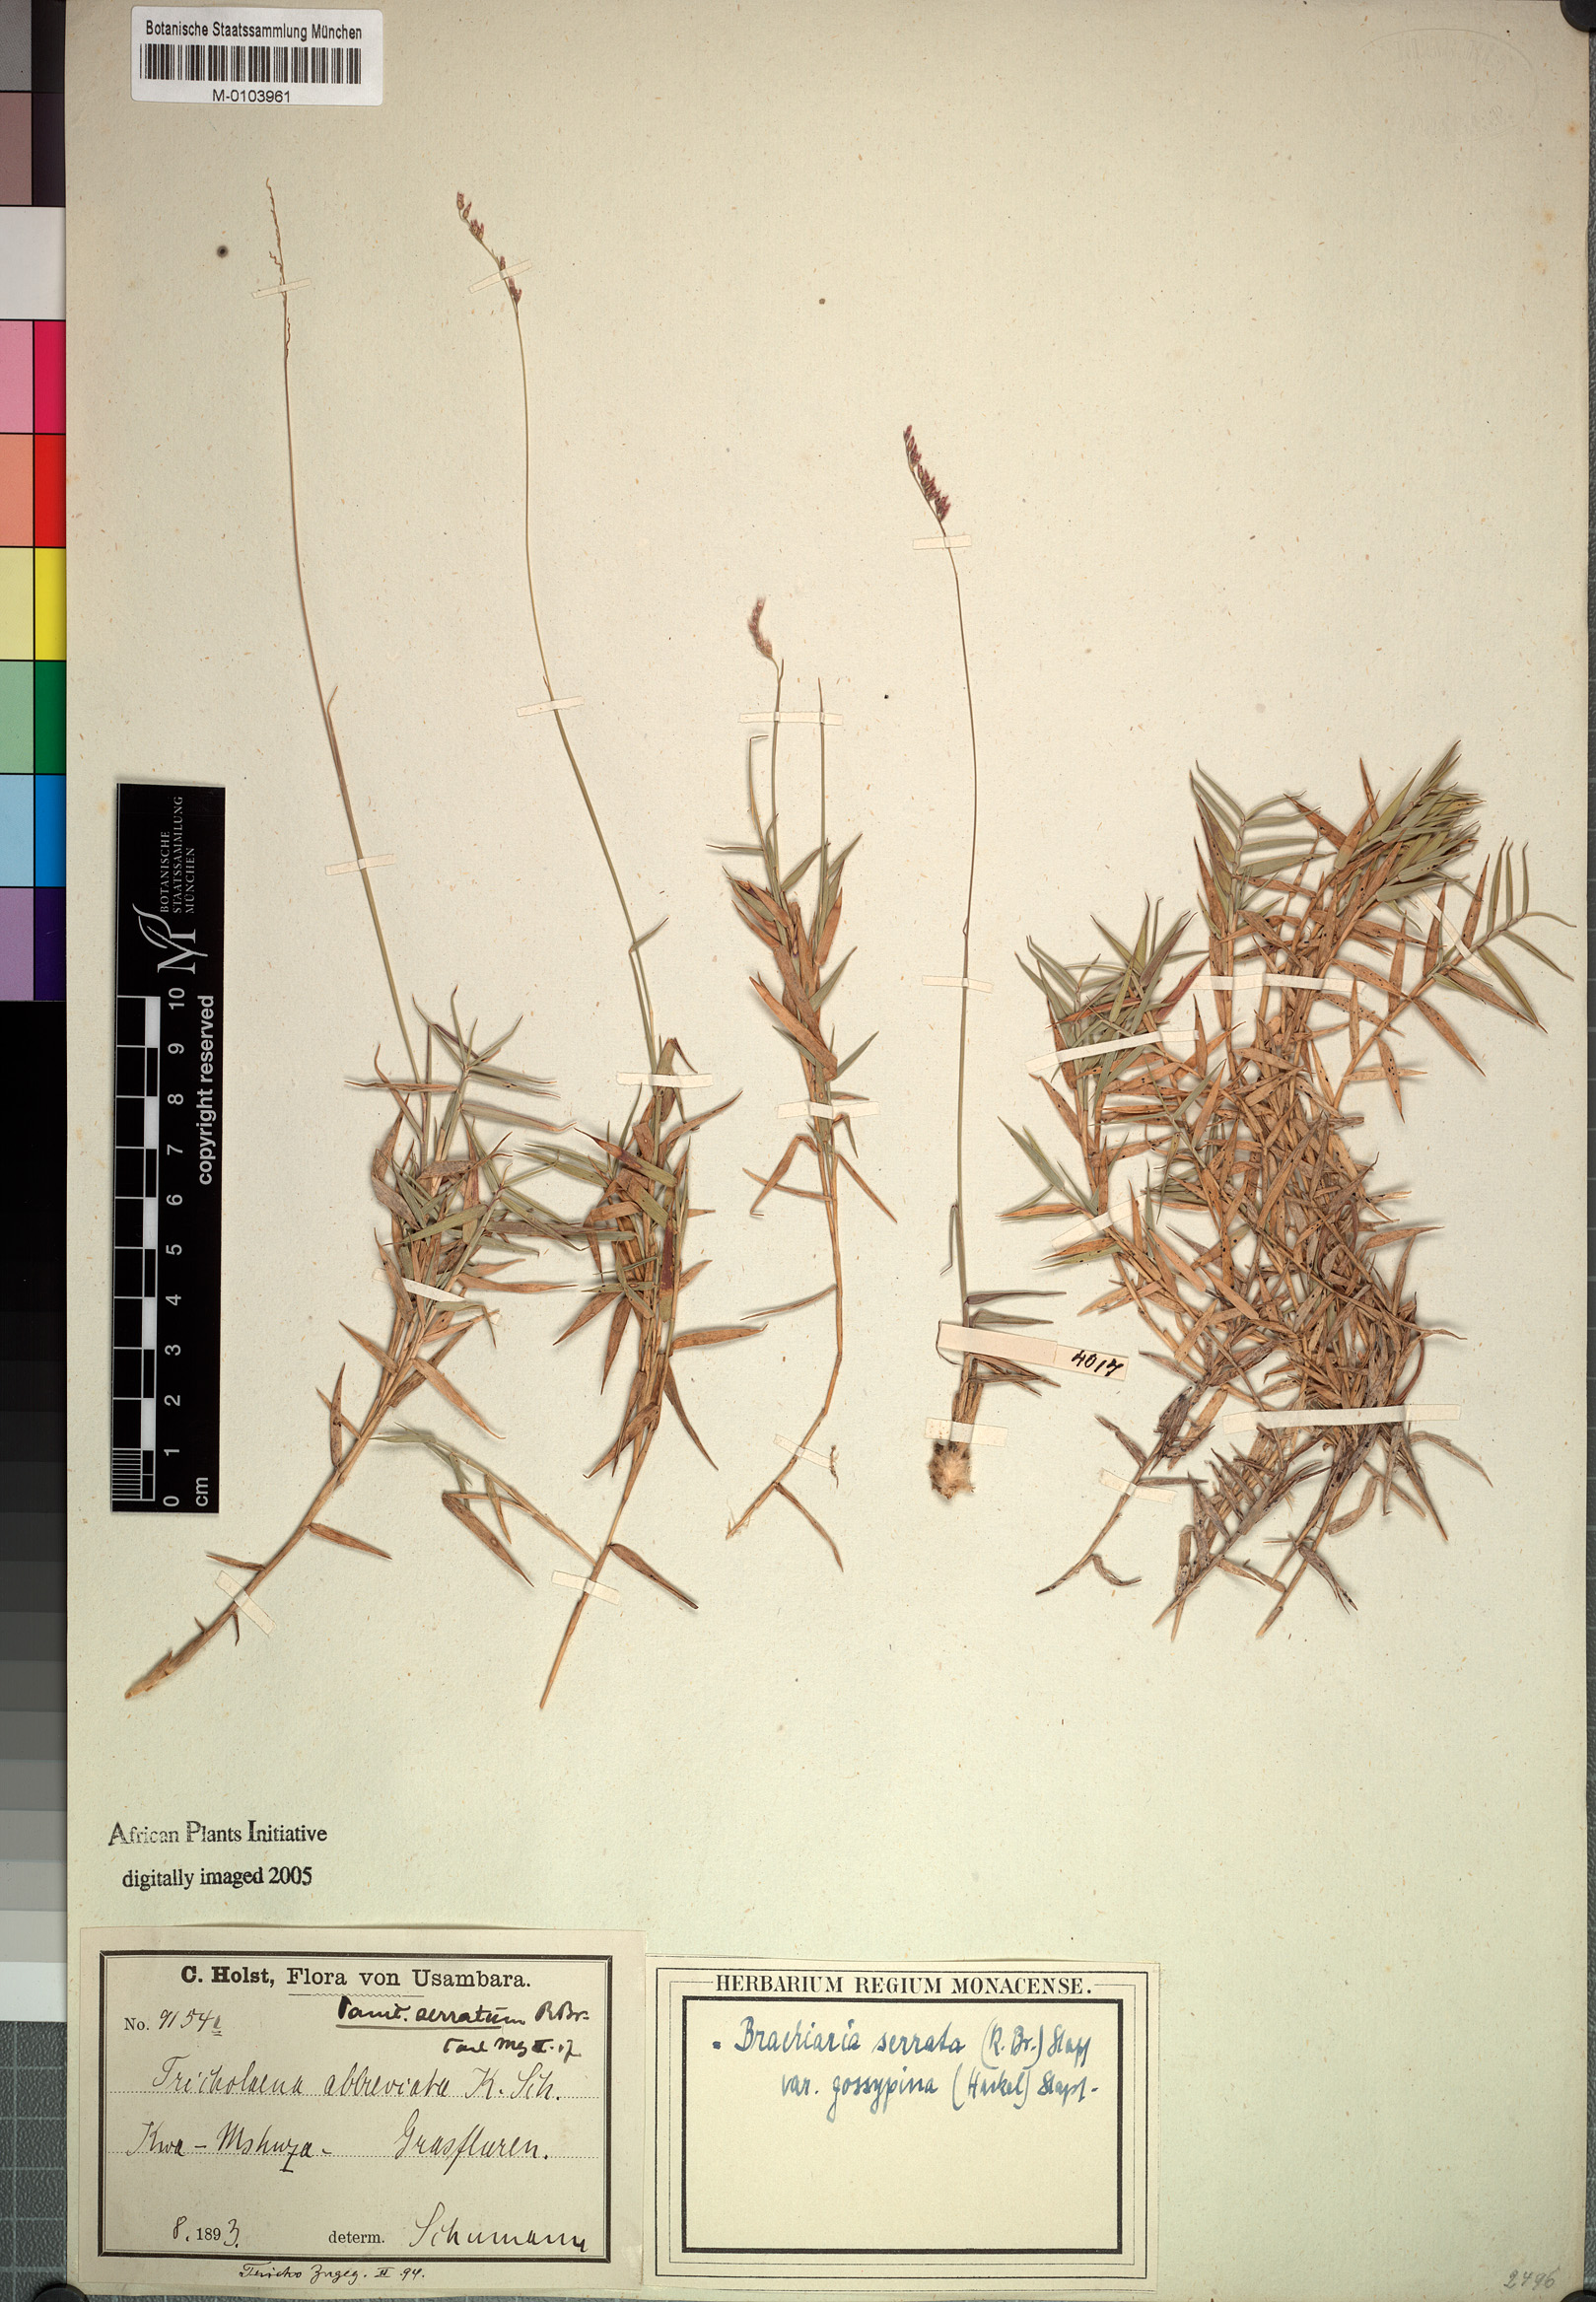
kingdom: Plantae
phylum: Tracheophyta
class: Liliopsida
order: Poales
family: Poaceae
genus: Urochloa
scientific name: Urochloa serrata
